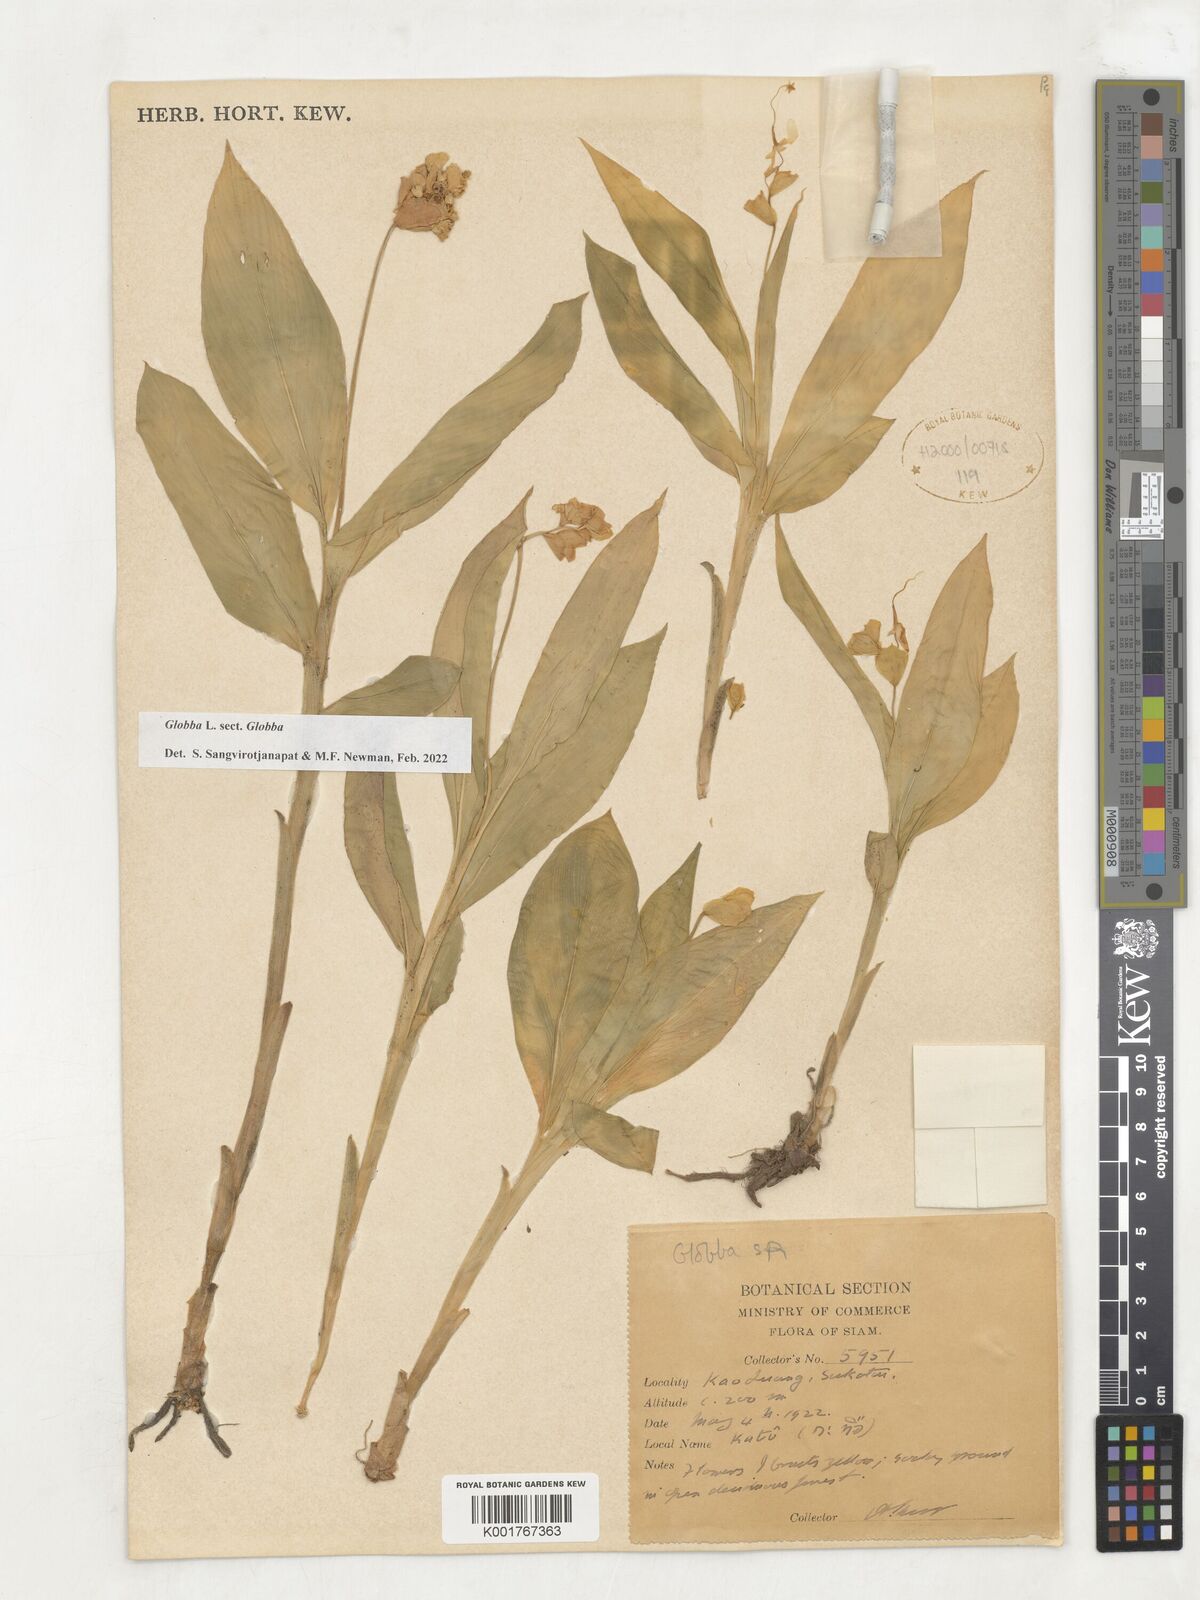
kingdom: Plantae
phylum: Tracheophyta
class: Liliopsida
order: Zingiberales
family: Zingiberaceae
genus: Globba
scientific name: Globba
